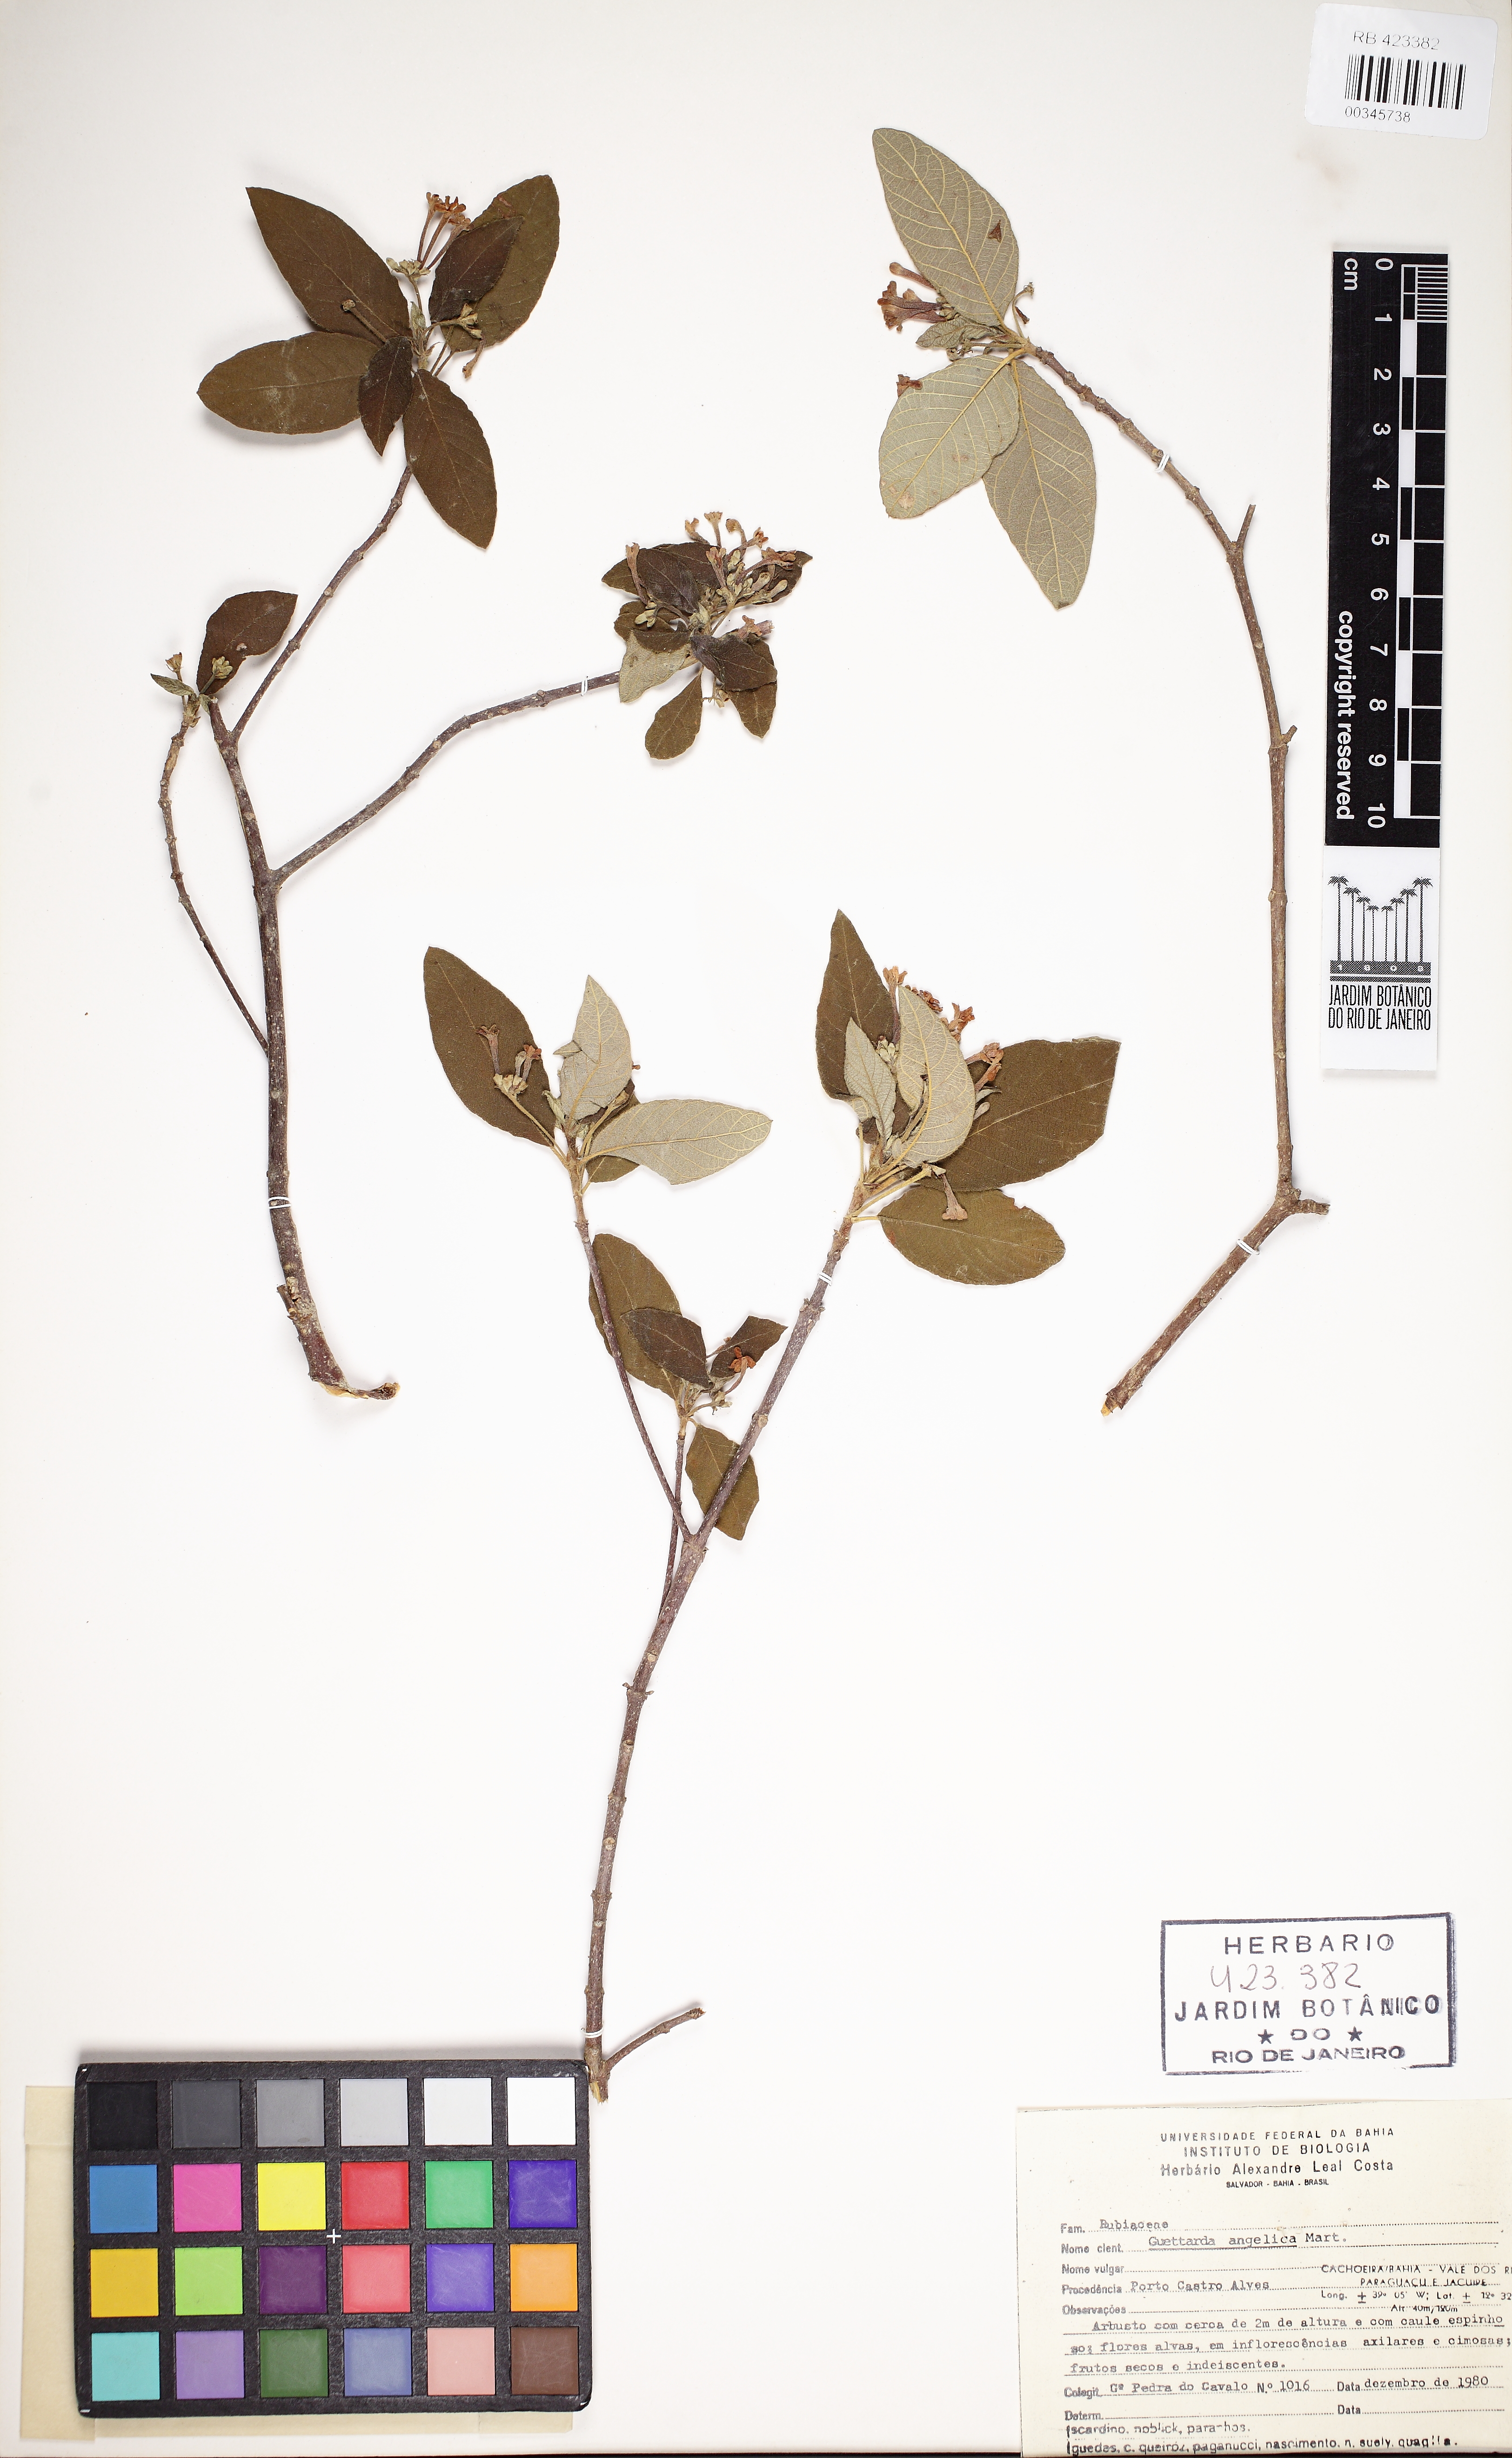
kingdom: Plantae
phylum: Tracheophyta
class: Magnoliopsida
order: Gentianales
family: Rubiaceae
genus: Guettarda
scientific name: Guettarda angelica
